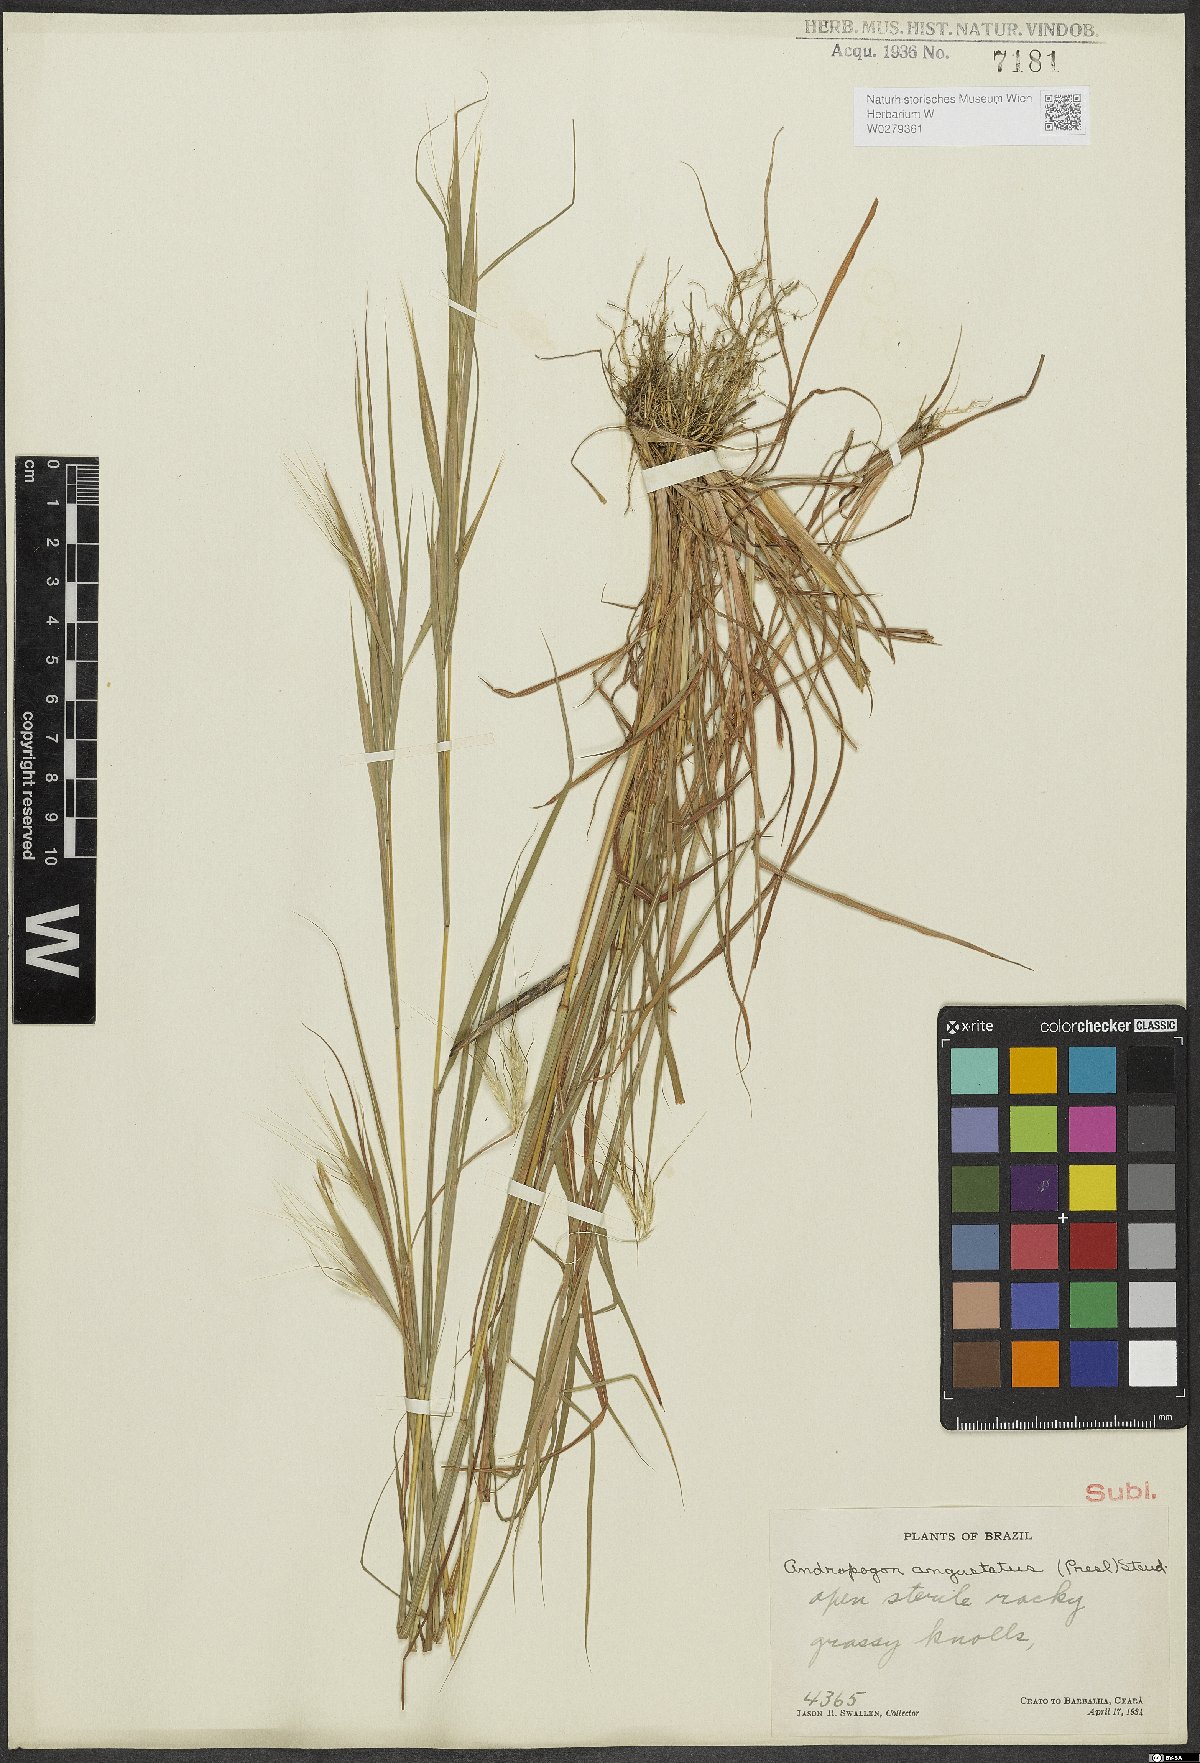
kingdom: Plantae
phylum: Tracheophyta
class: Liliopsida
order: Poales
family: Poaceae
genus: Andropogon
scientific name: Andropogon angustatus
